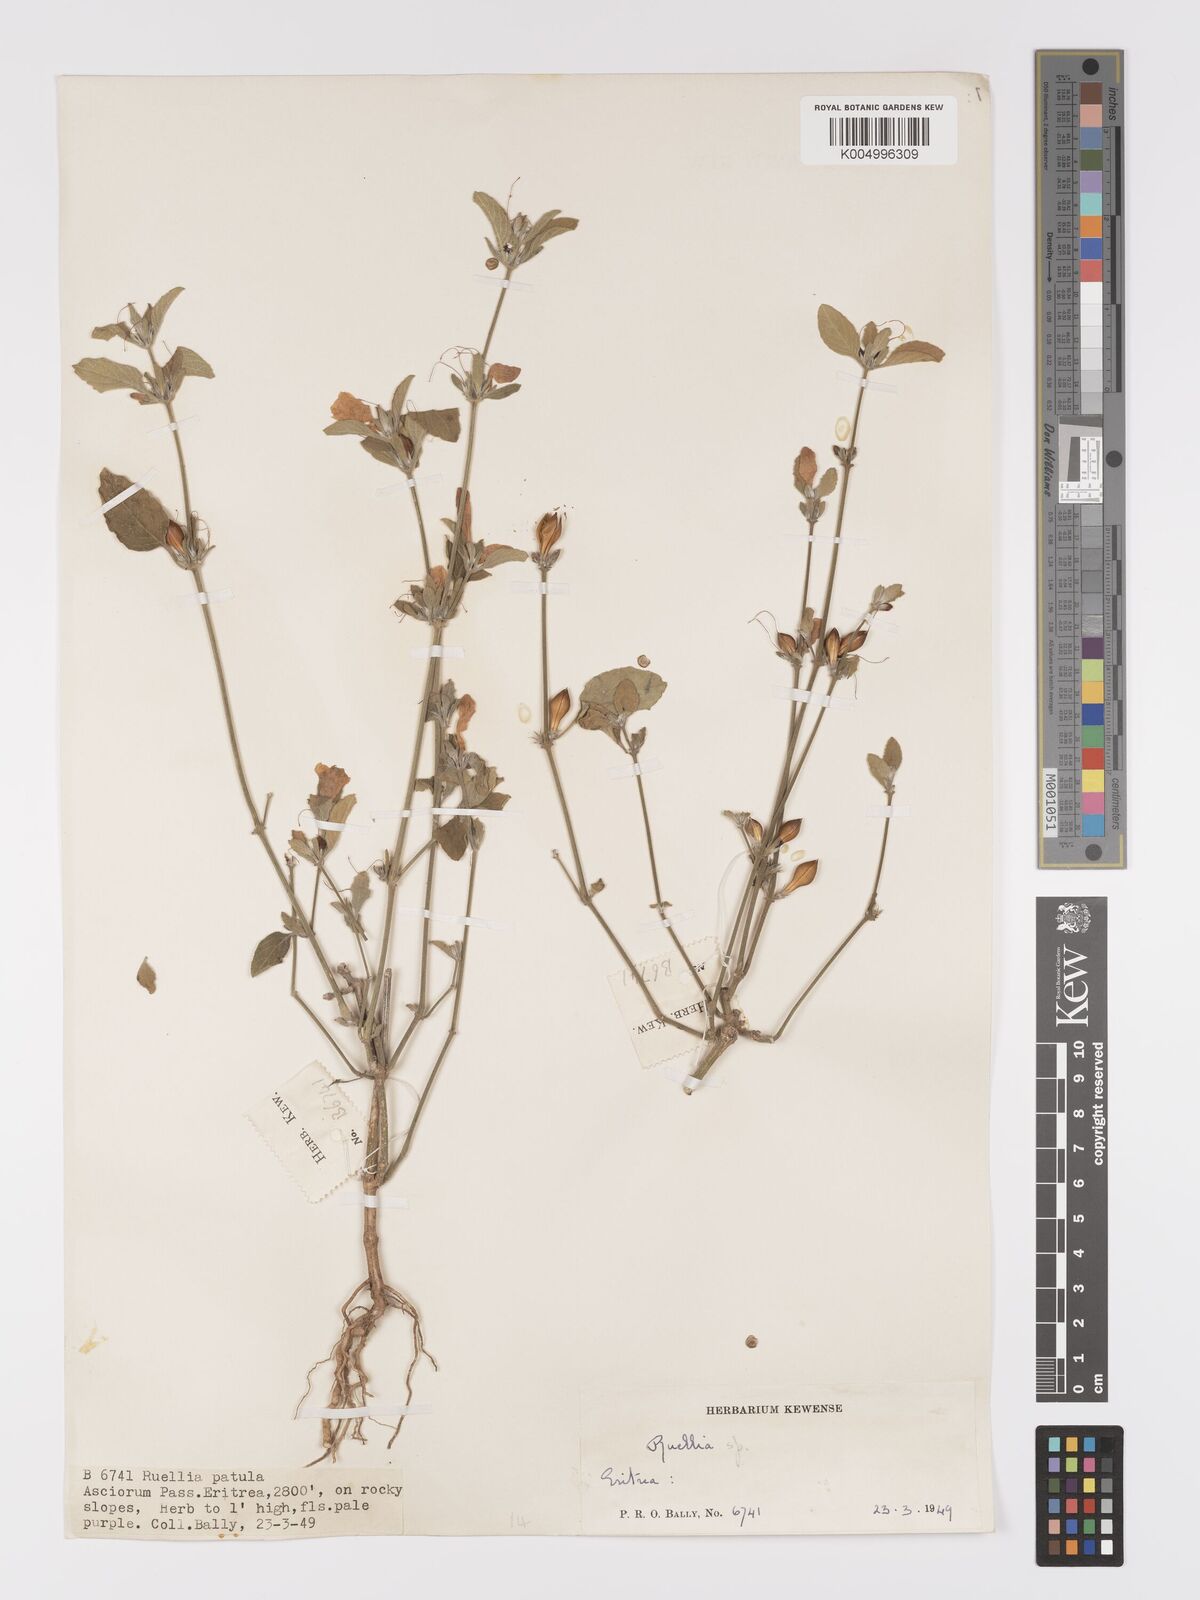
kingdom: Plantae
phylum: Tracheophyta
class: Magnoliopsida
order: Lamiales
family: Acanthaceae
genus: Ruellia
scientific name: Ruellia patula
